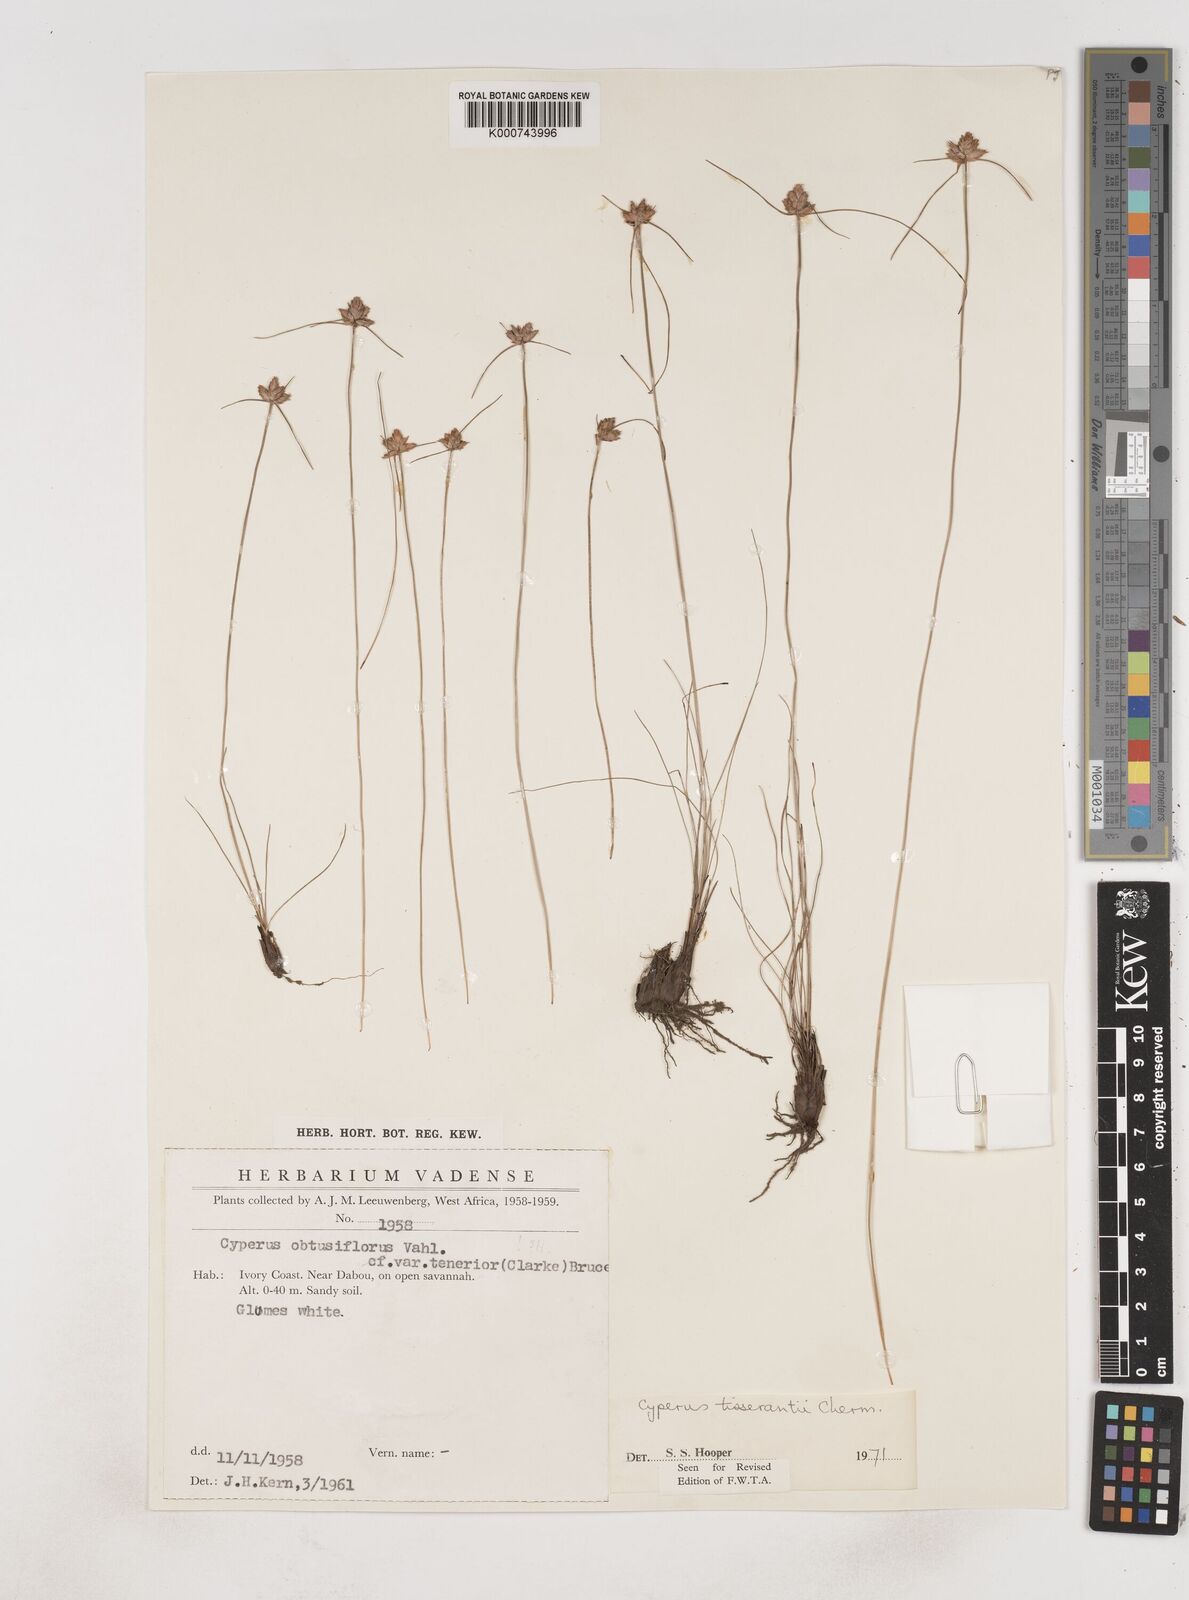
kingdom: Plantae
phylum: Tracheophyta
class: Liliopsida
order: Poales
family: Cyperaceae
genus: Cyperus
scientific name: Cyperus niveus
